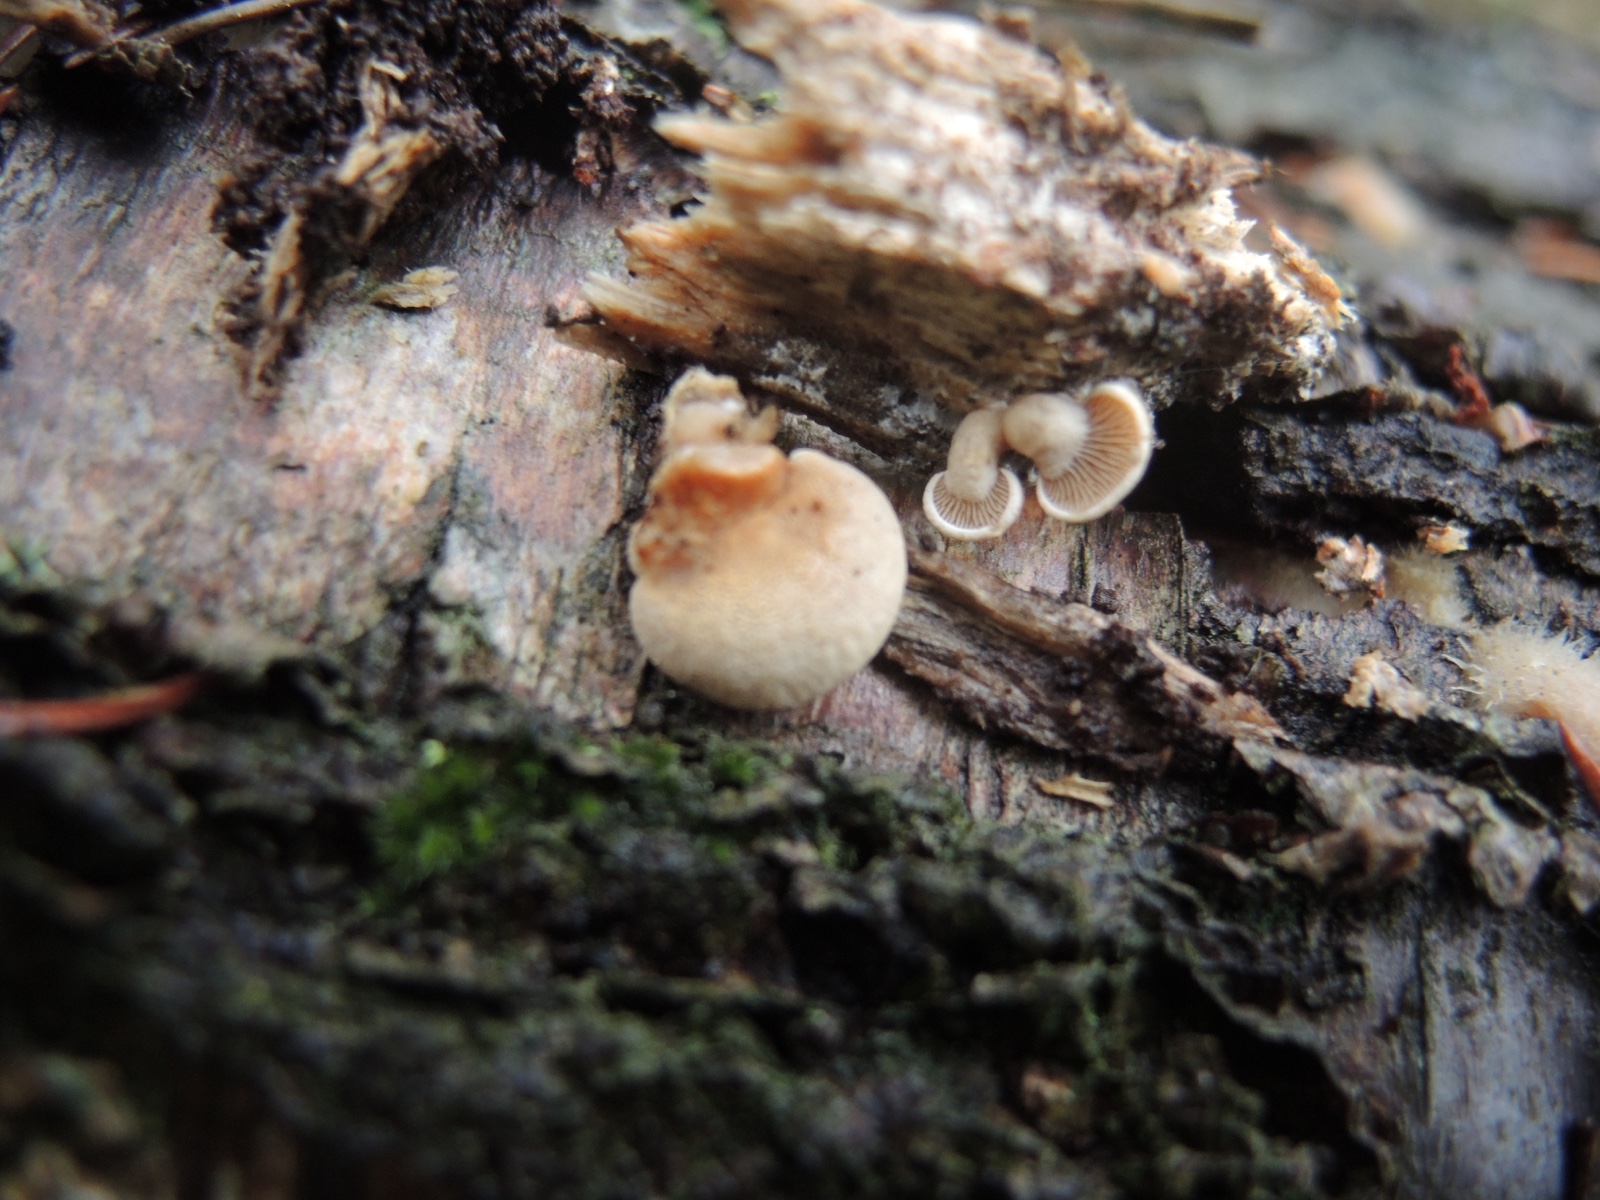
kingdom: Fungi
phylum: Basidiomycota
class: Agaricomycetes
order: Agaricales
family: Mycenaceae
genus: Panellus
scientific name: Panellus stipticus
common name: kliddet epaulethat
